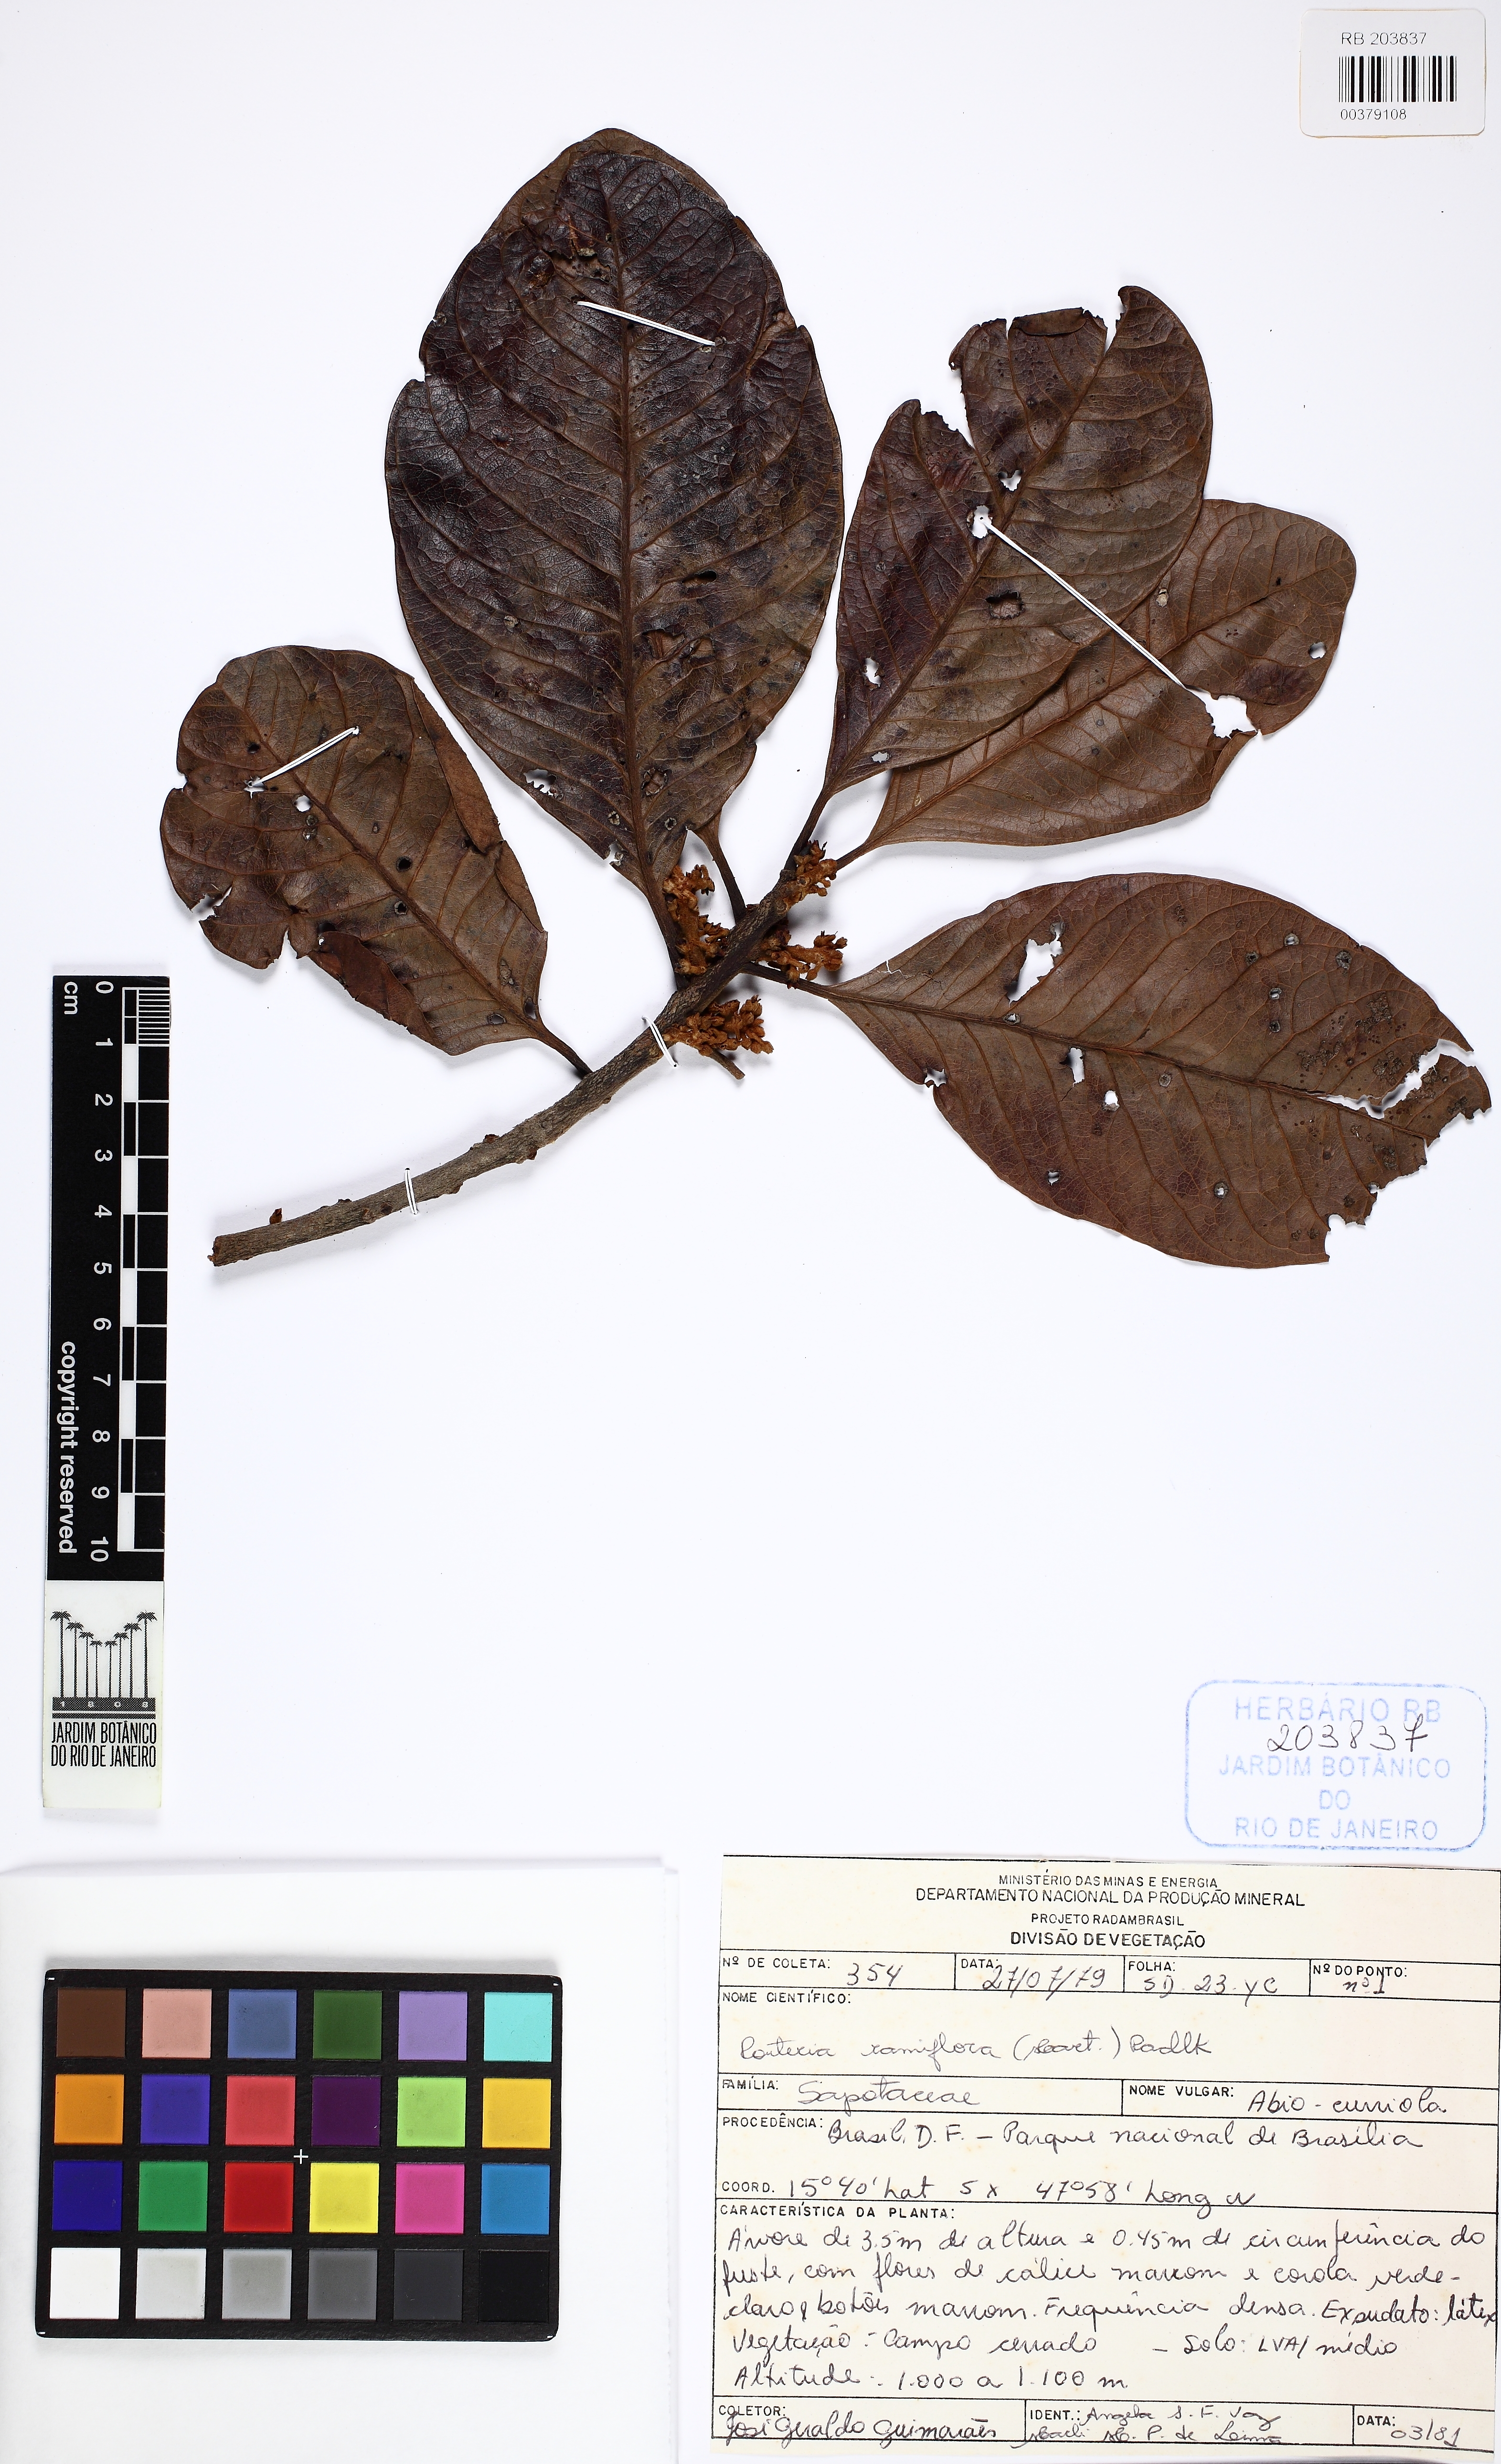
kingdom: Plantae
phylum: Tracheophyta
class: Magnoliopsida
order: Ericales
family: Sapotaceae
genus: Pouteria
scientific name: Pouteria ramiflora
